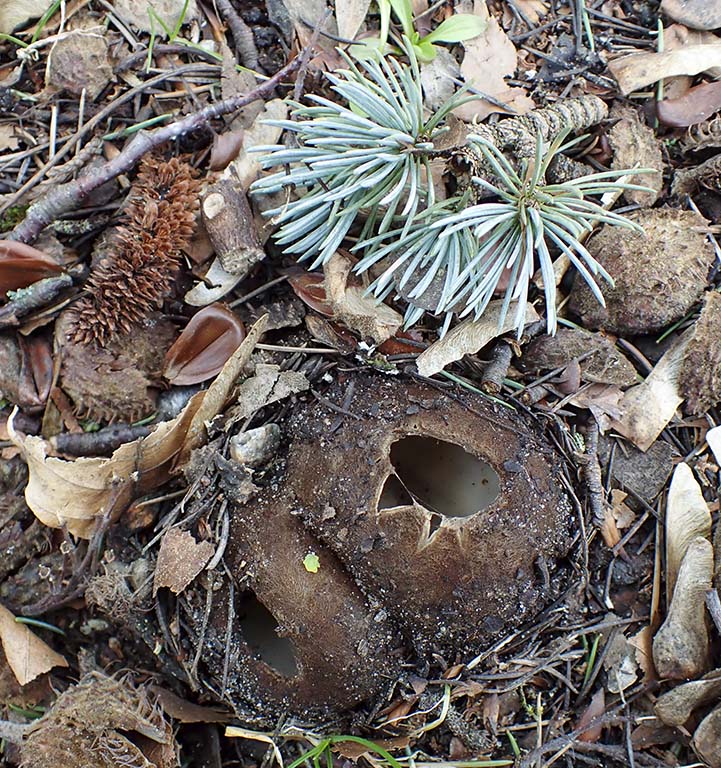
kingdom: Fungi
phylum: Ascomycota
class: Pezizomycetes
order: Pezizales
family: Pyronemataceae
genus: Geopora
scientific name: Geopora sumneriana
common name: vår-jordbæger
